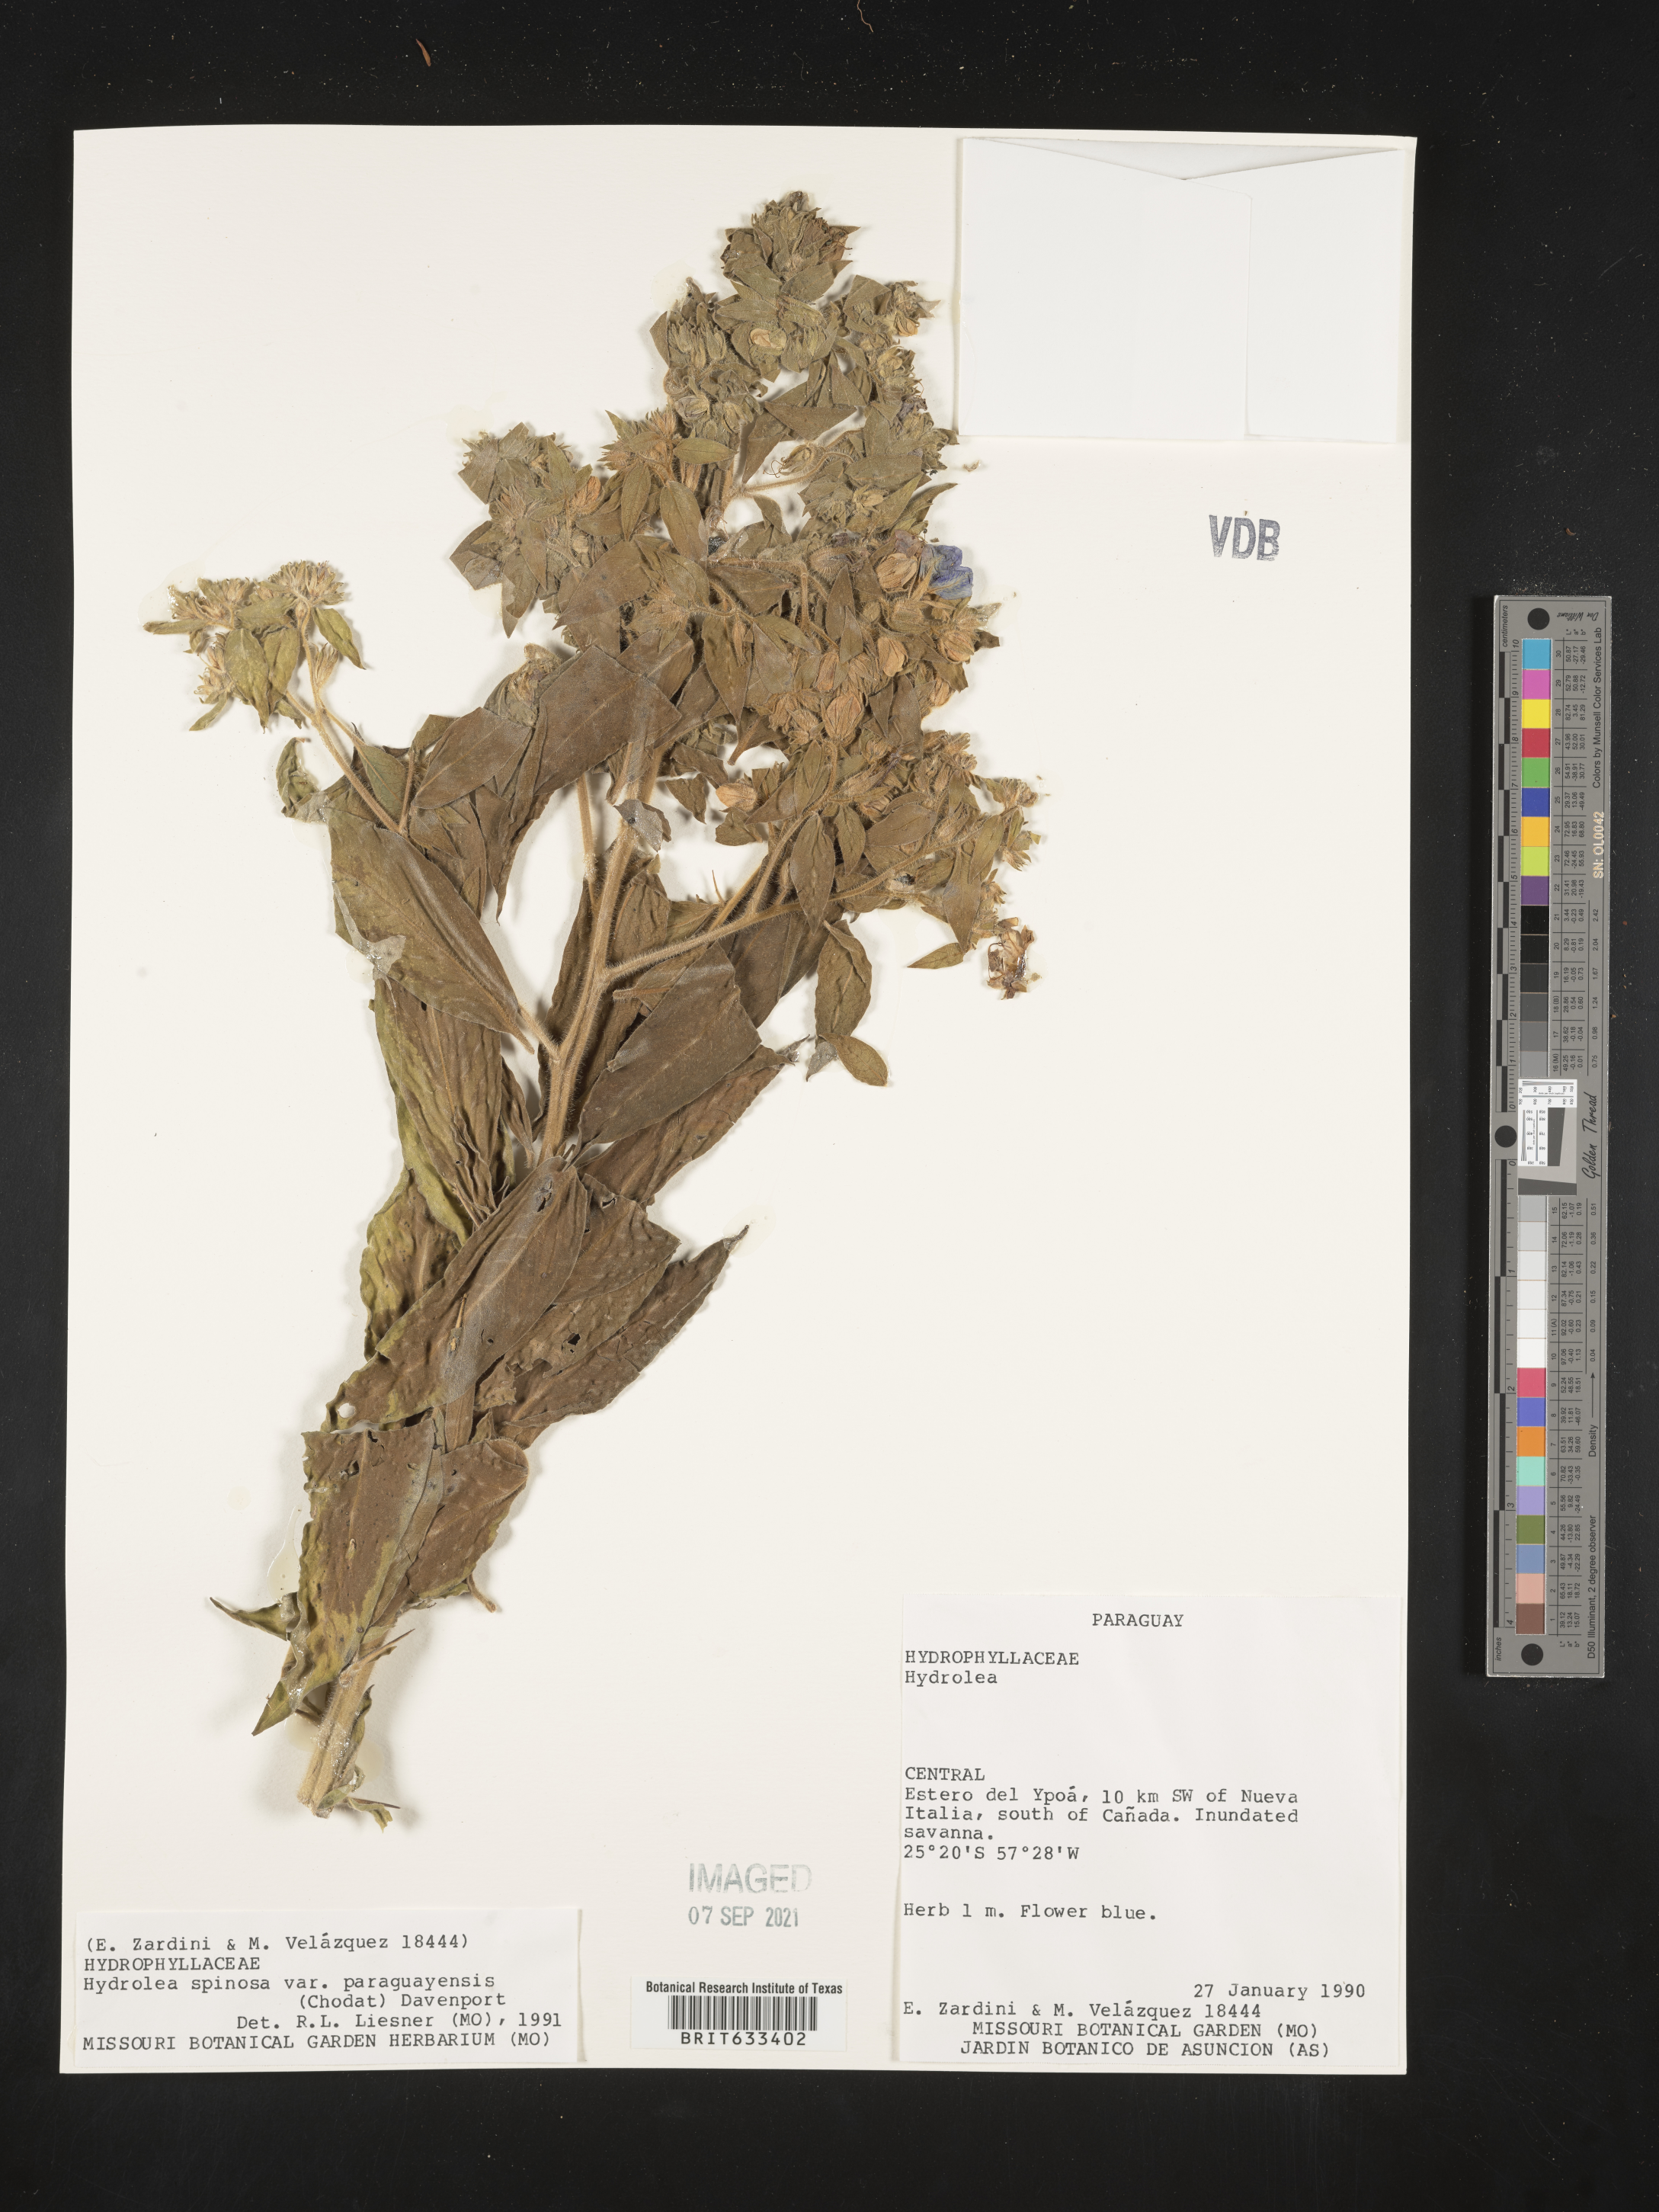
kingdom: Plantae
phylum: Tracheophyta
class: Magnoliopsida
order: Solanales
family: Hydroleaceae
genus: Hydrolea
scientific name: Hydrolea
